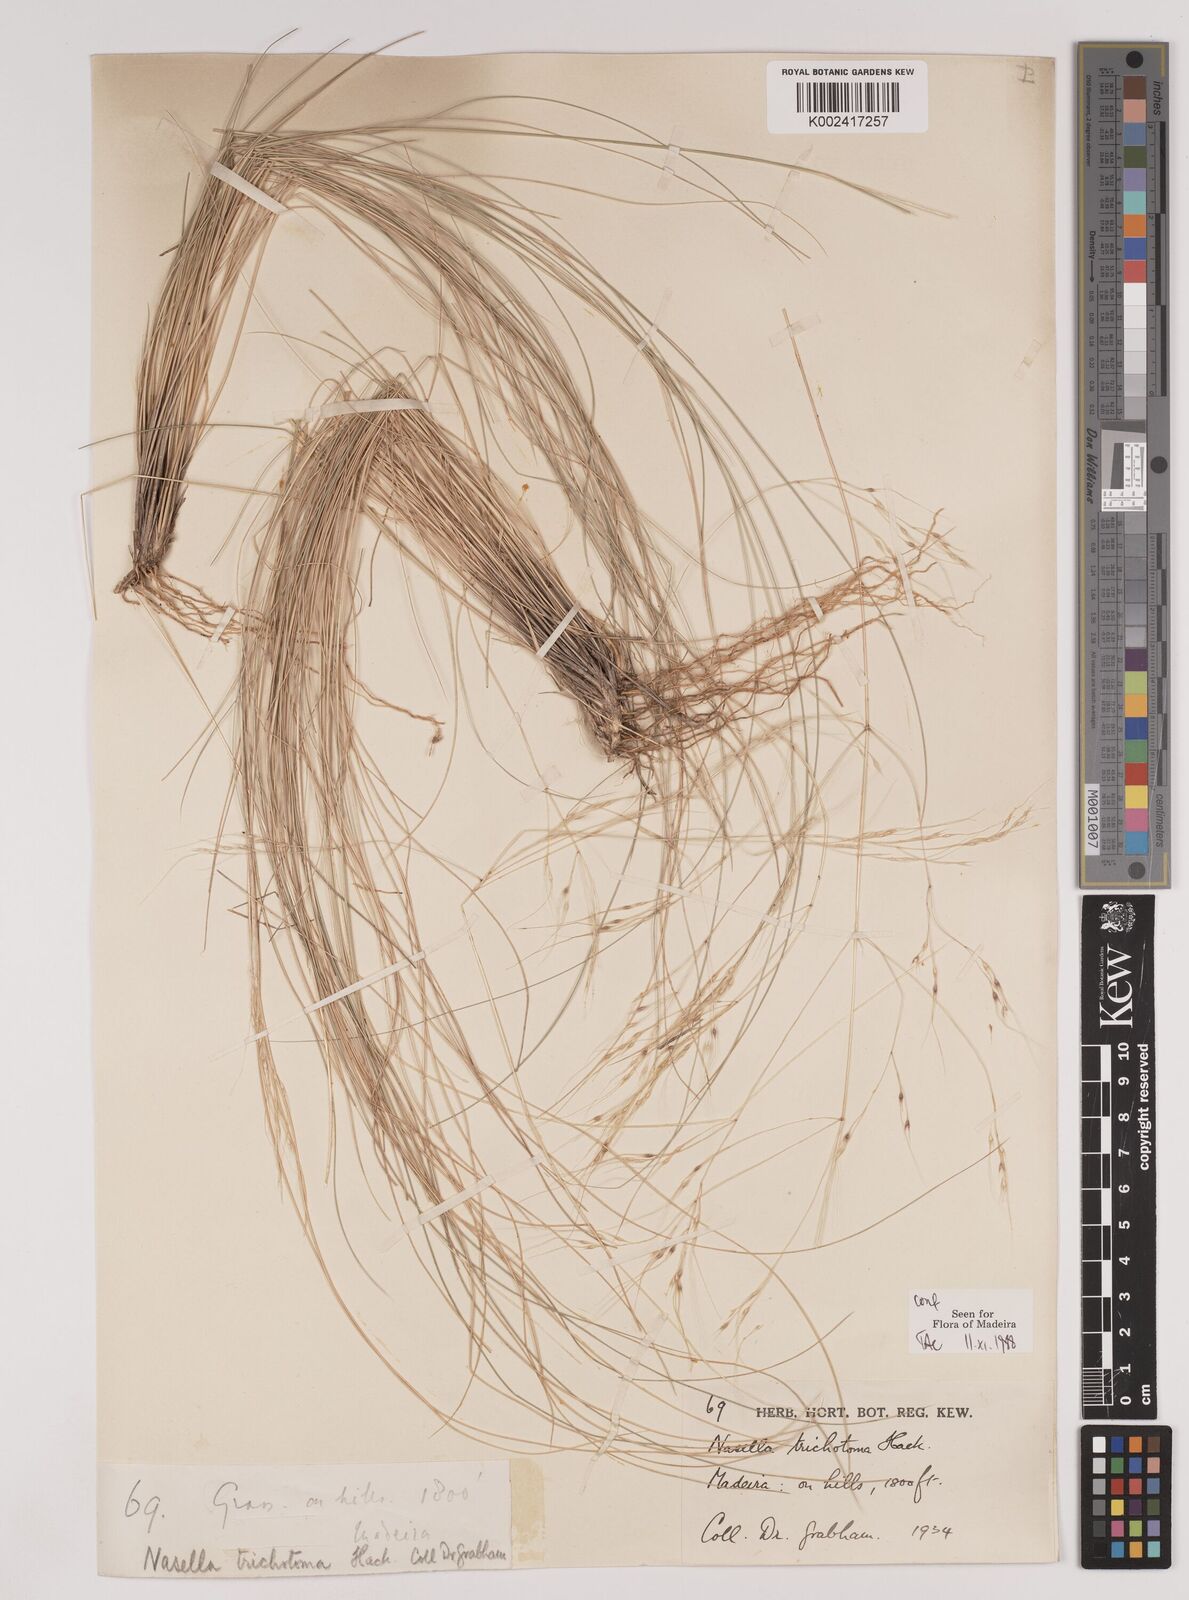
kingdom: Plantae
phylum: Tracheophyta
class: Liliopsida
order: Poales
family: Poaceae
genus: Nassella
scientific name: Nassella trichotoma
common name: Serrated tussock grass
